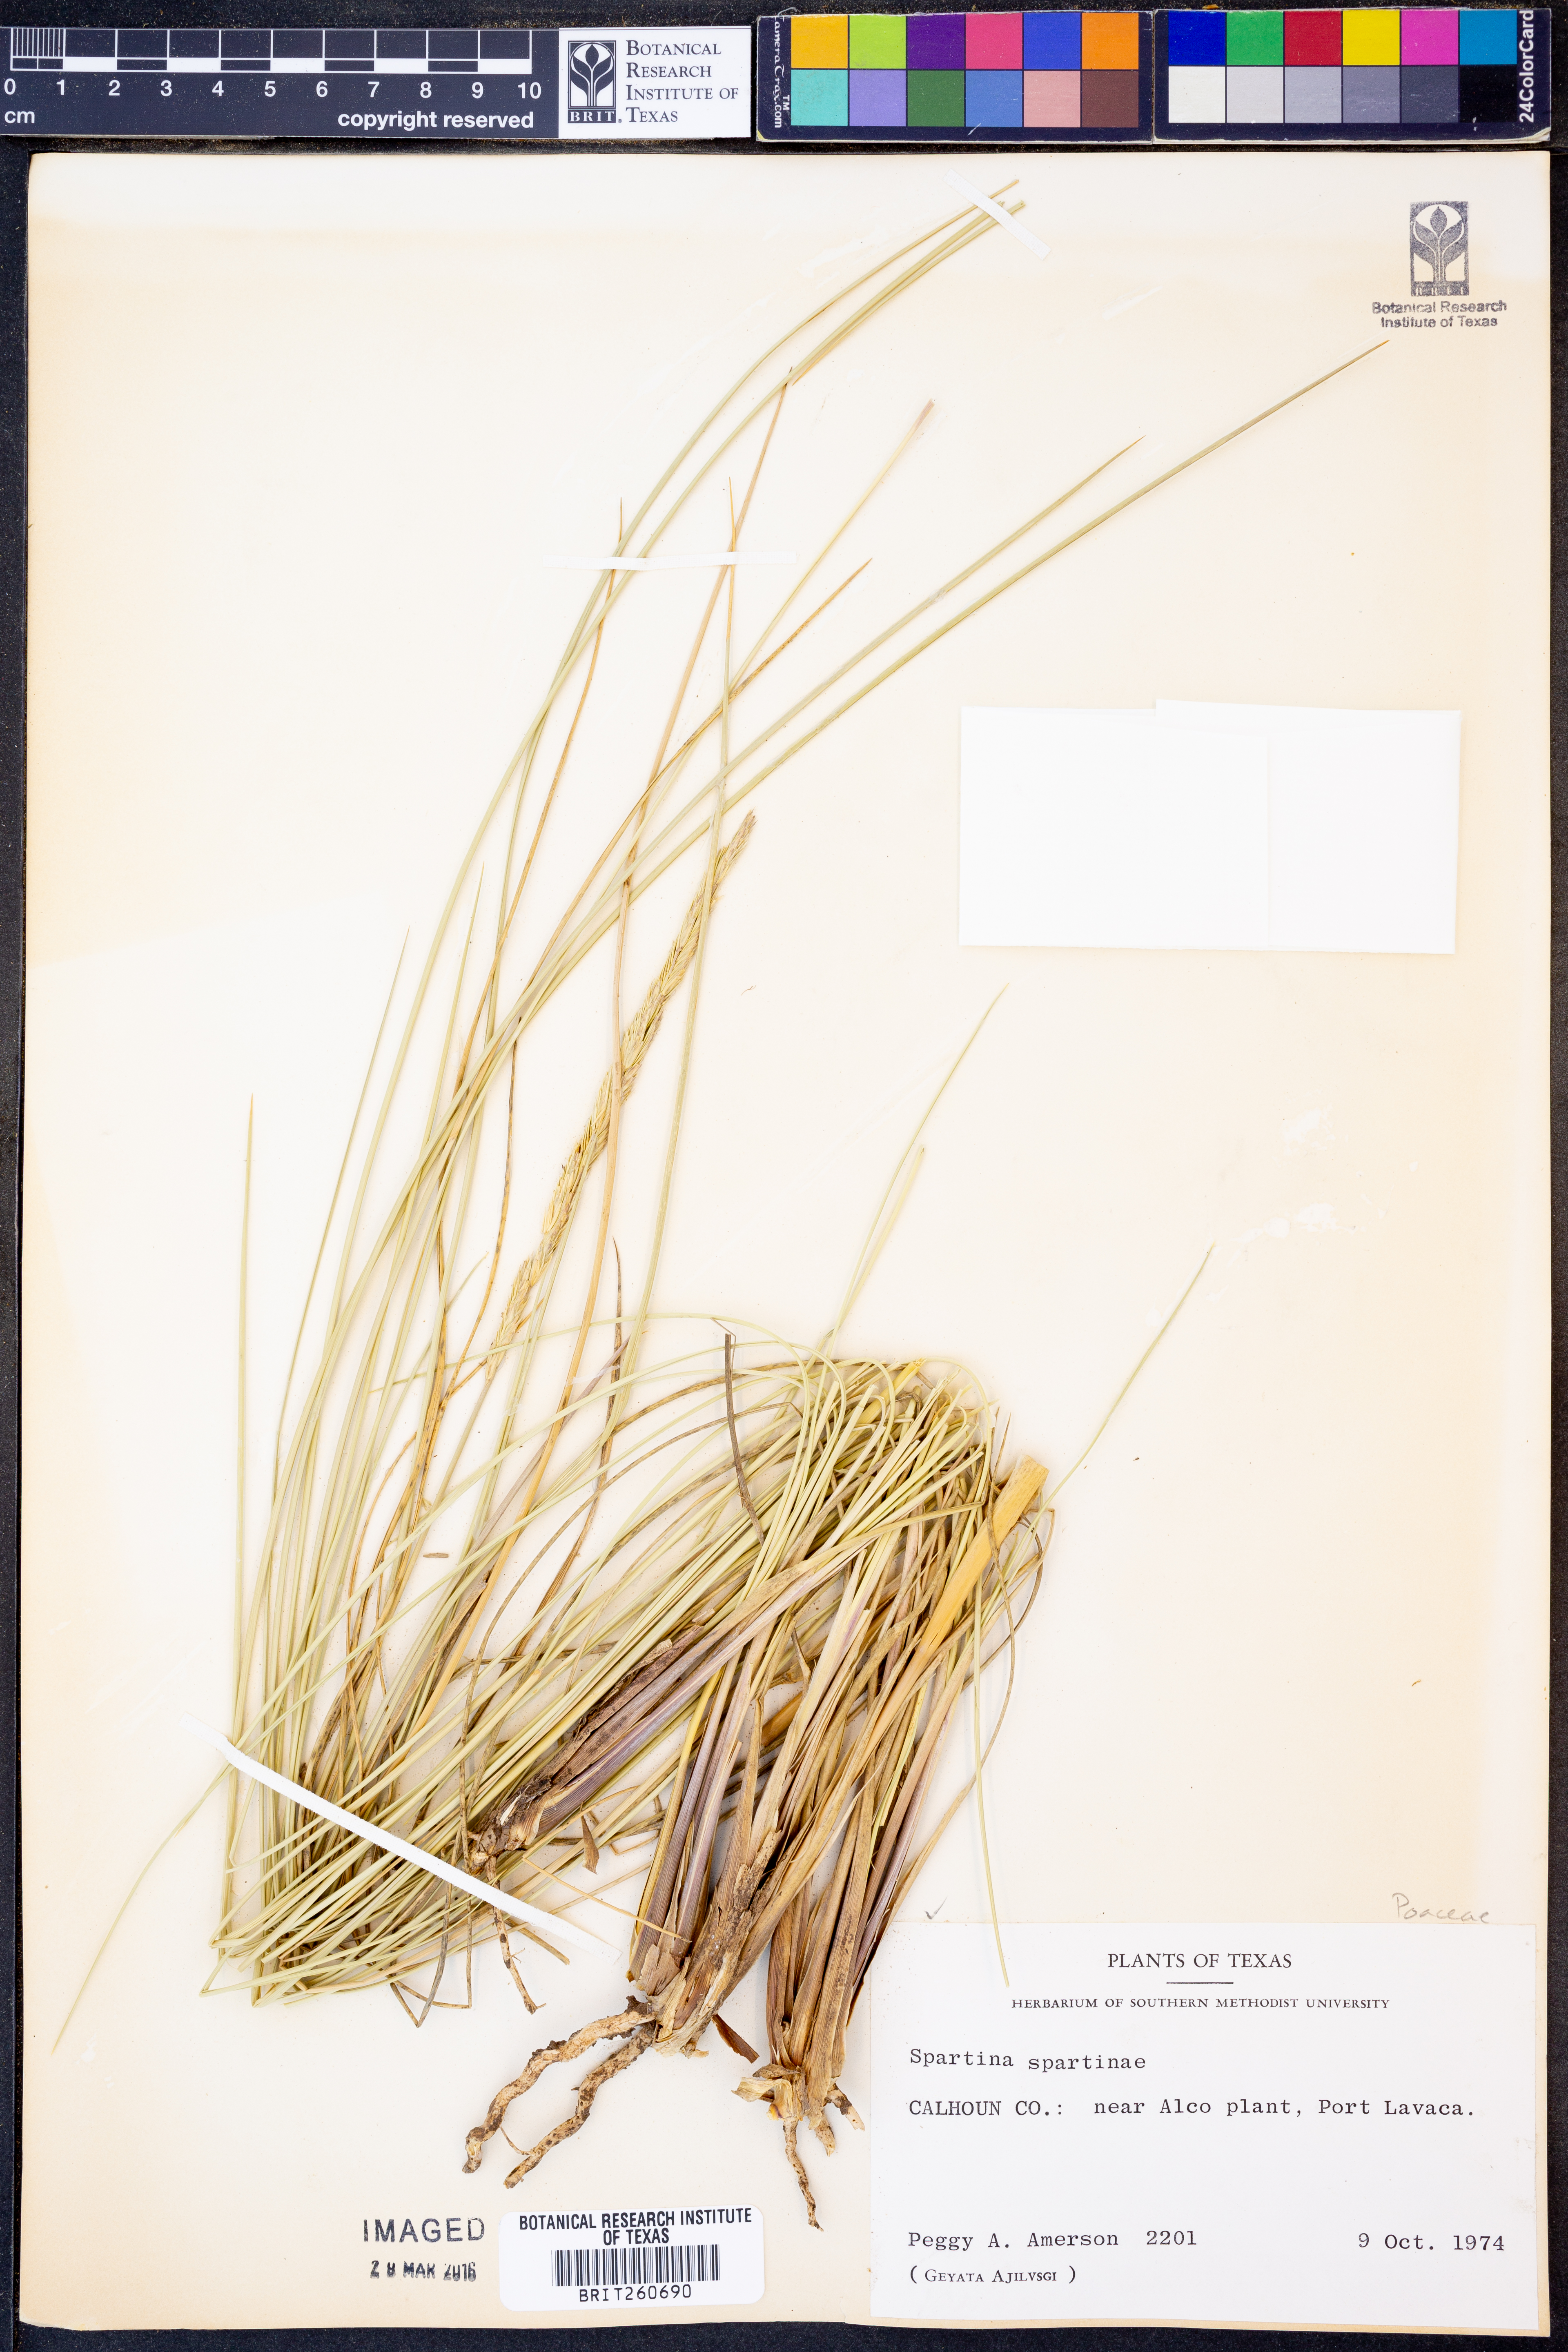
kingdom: Plantae
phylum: Tracheophyta
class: Liliopsida
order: Poales
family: Poaceae
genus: Sporobolus
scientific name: Sporobolus spartinae
